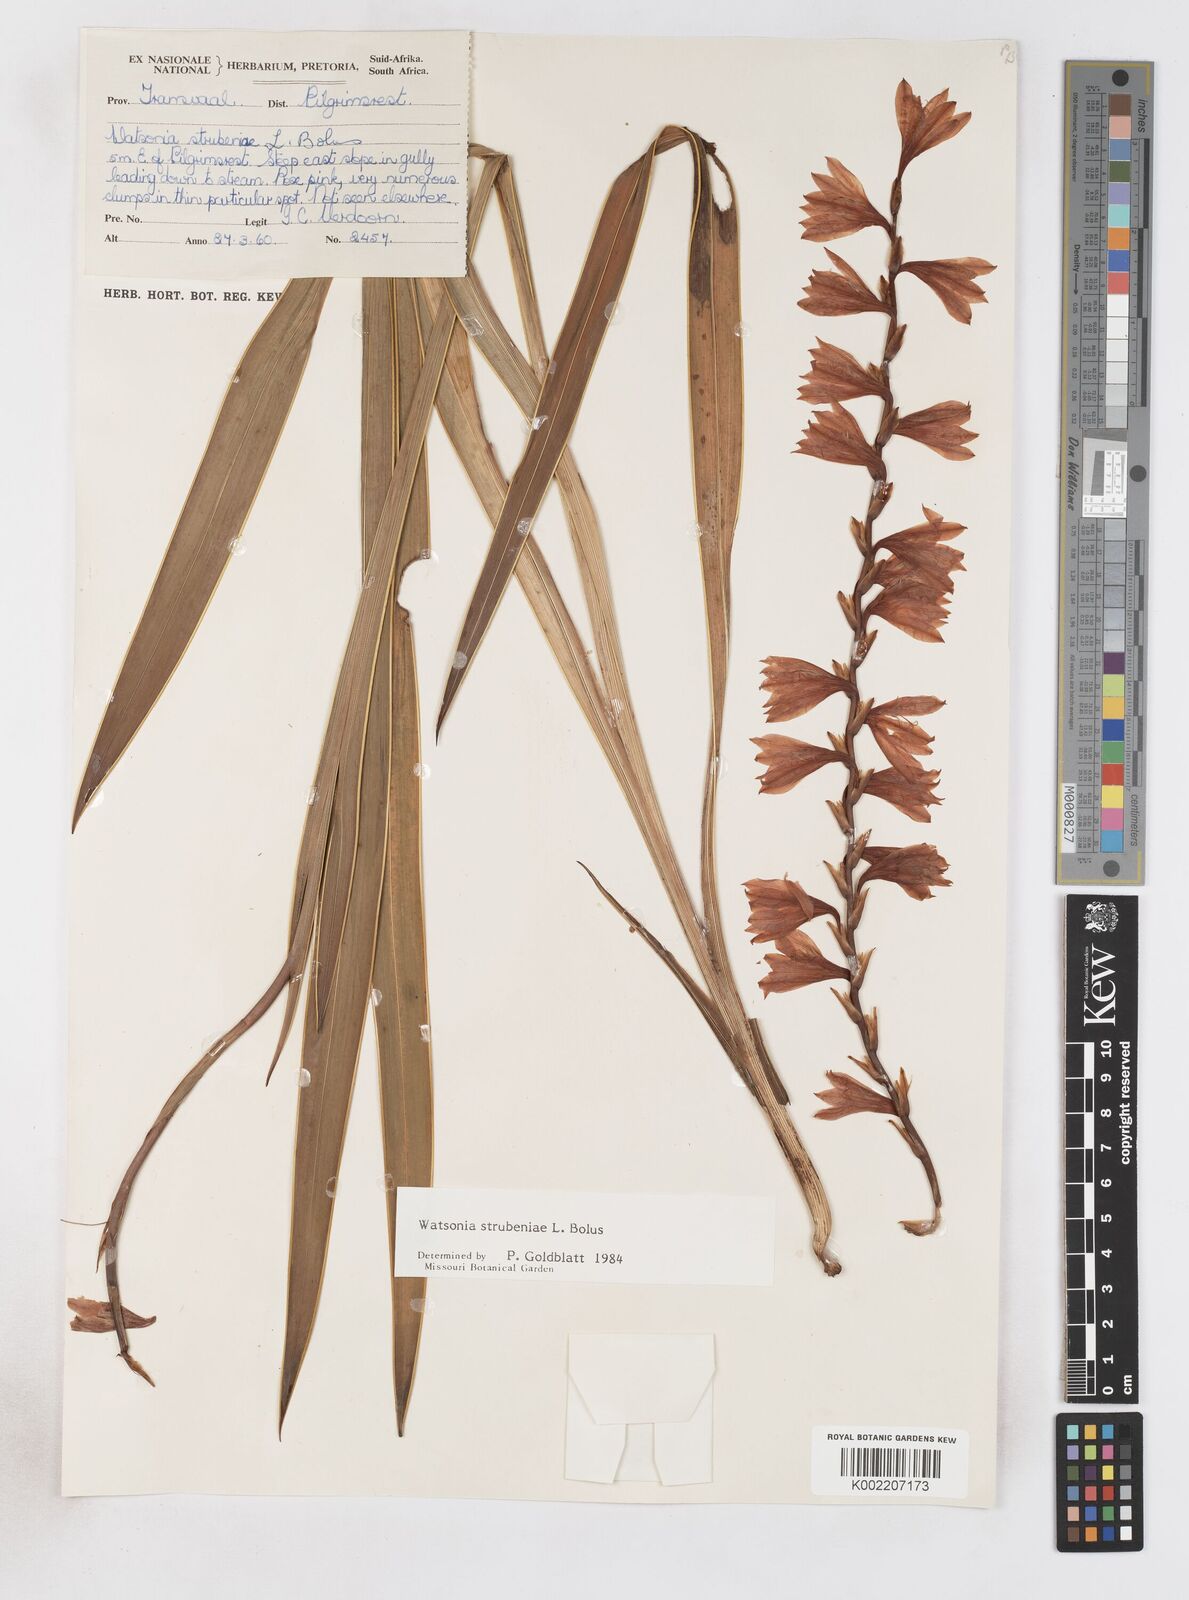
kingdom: Plantae
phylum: Tracheophyta
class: Liliopsida
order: Asparagales
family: Iridaceae
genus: Watsonia
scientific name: Watsonia strubeniae
